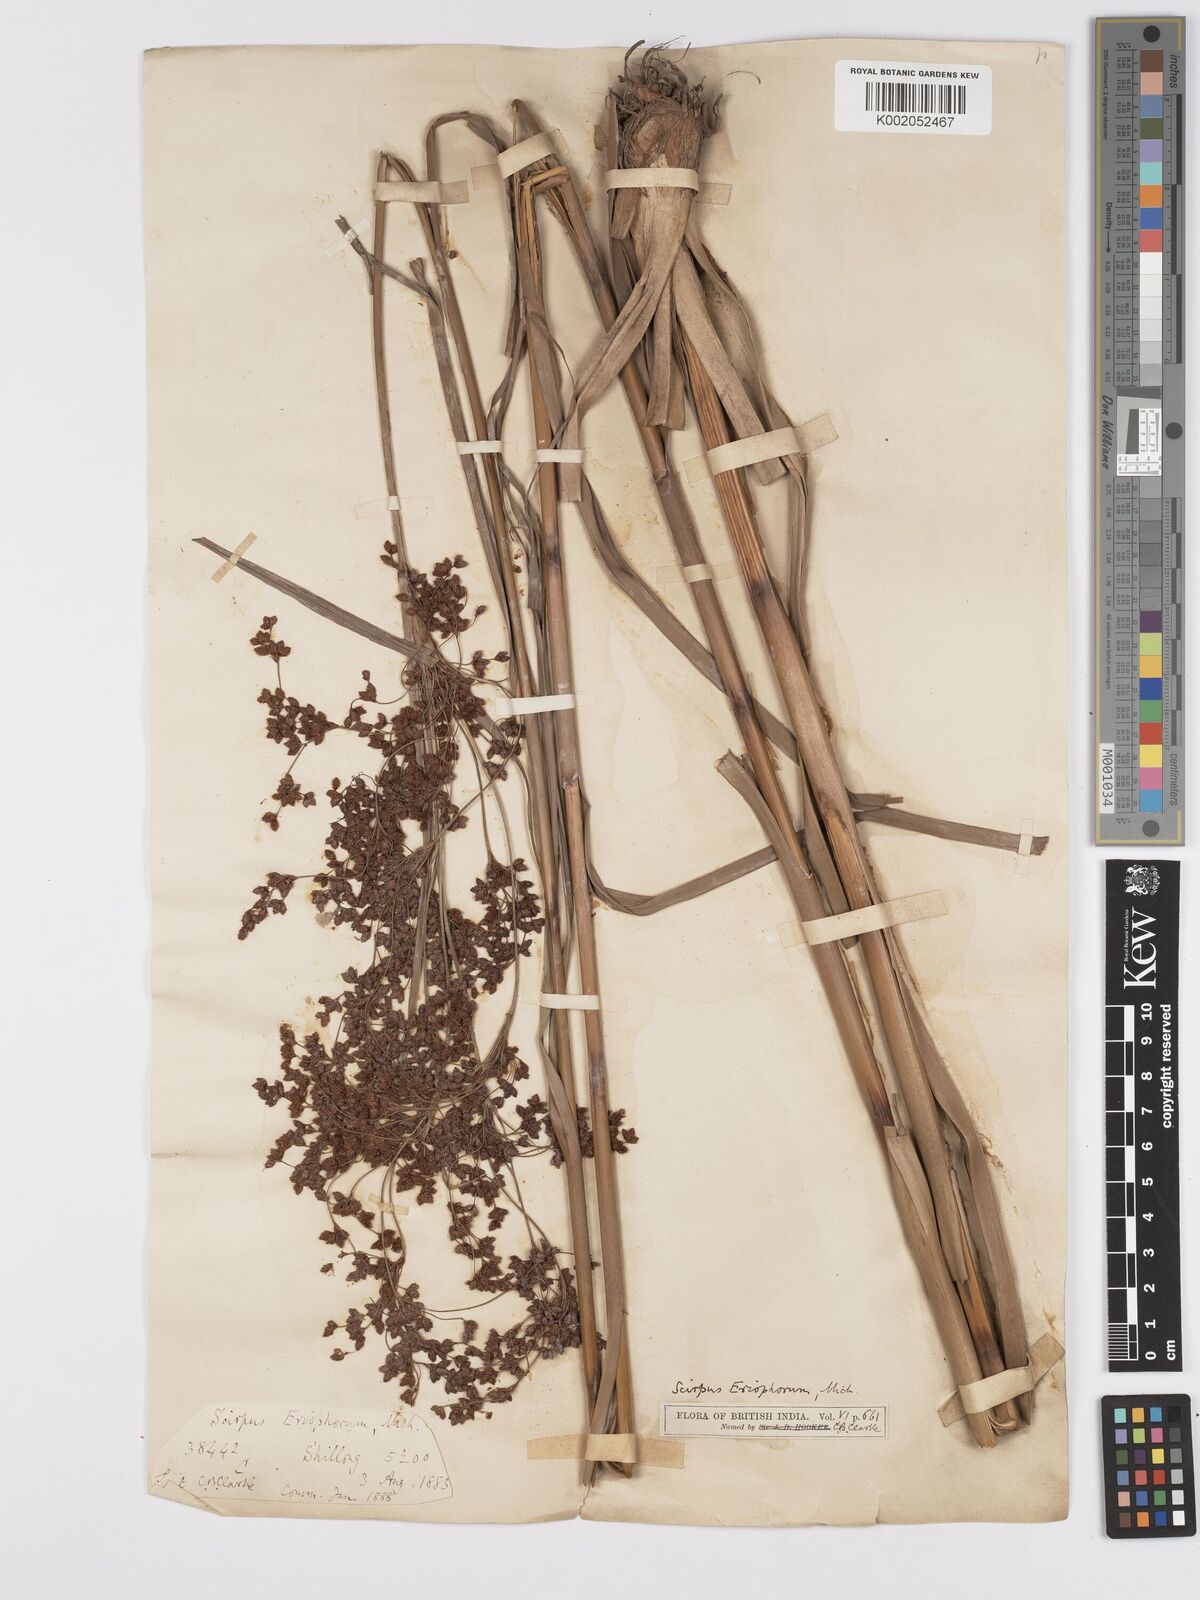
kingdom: Plantae
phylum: Tracheophyta
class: Liliopsida
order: Poales
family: Cyperaceae
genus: Scirpus
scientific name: Scirpus cyperinus
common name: Black-sheathed bulrush
